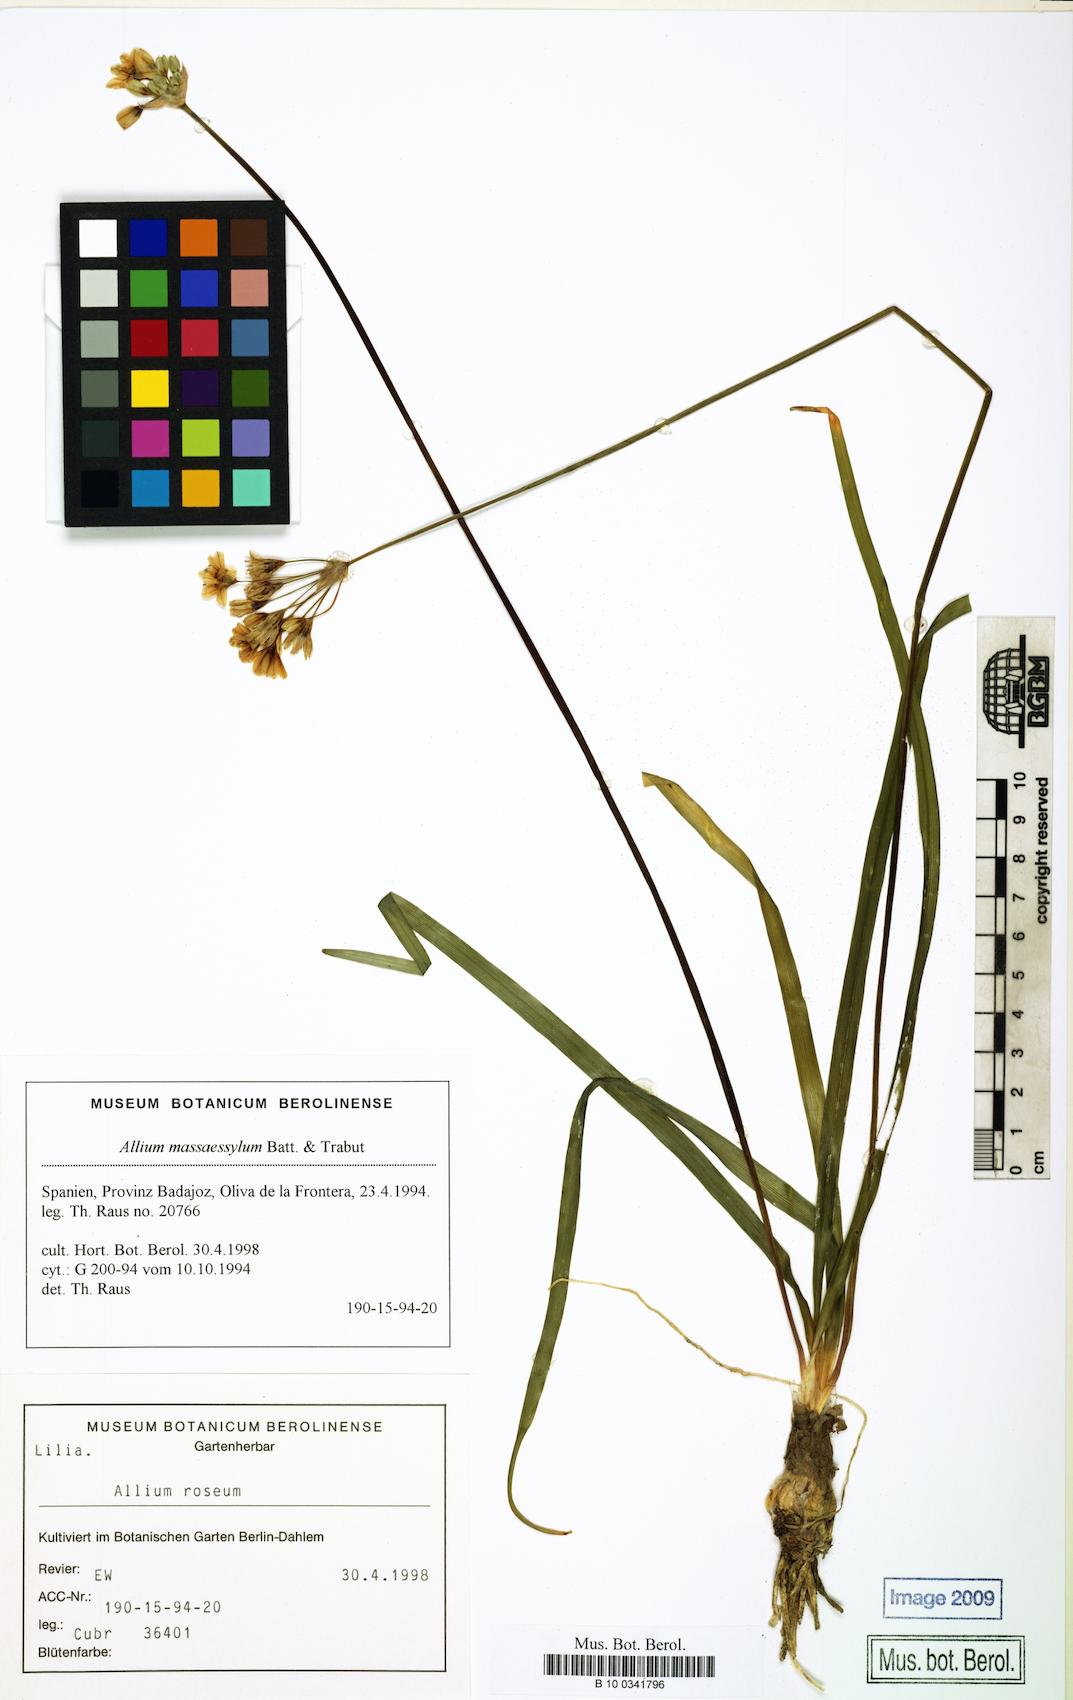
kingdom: Plantae
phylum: Tracheophyta
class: Liliopsida
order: Asparagales
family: Amaryllidaceae
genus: Allium
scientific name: Allium massaessylum
